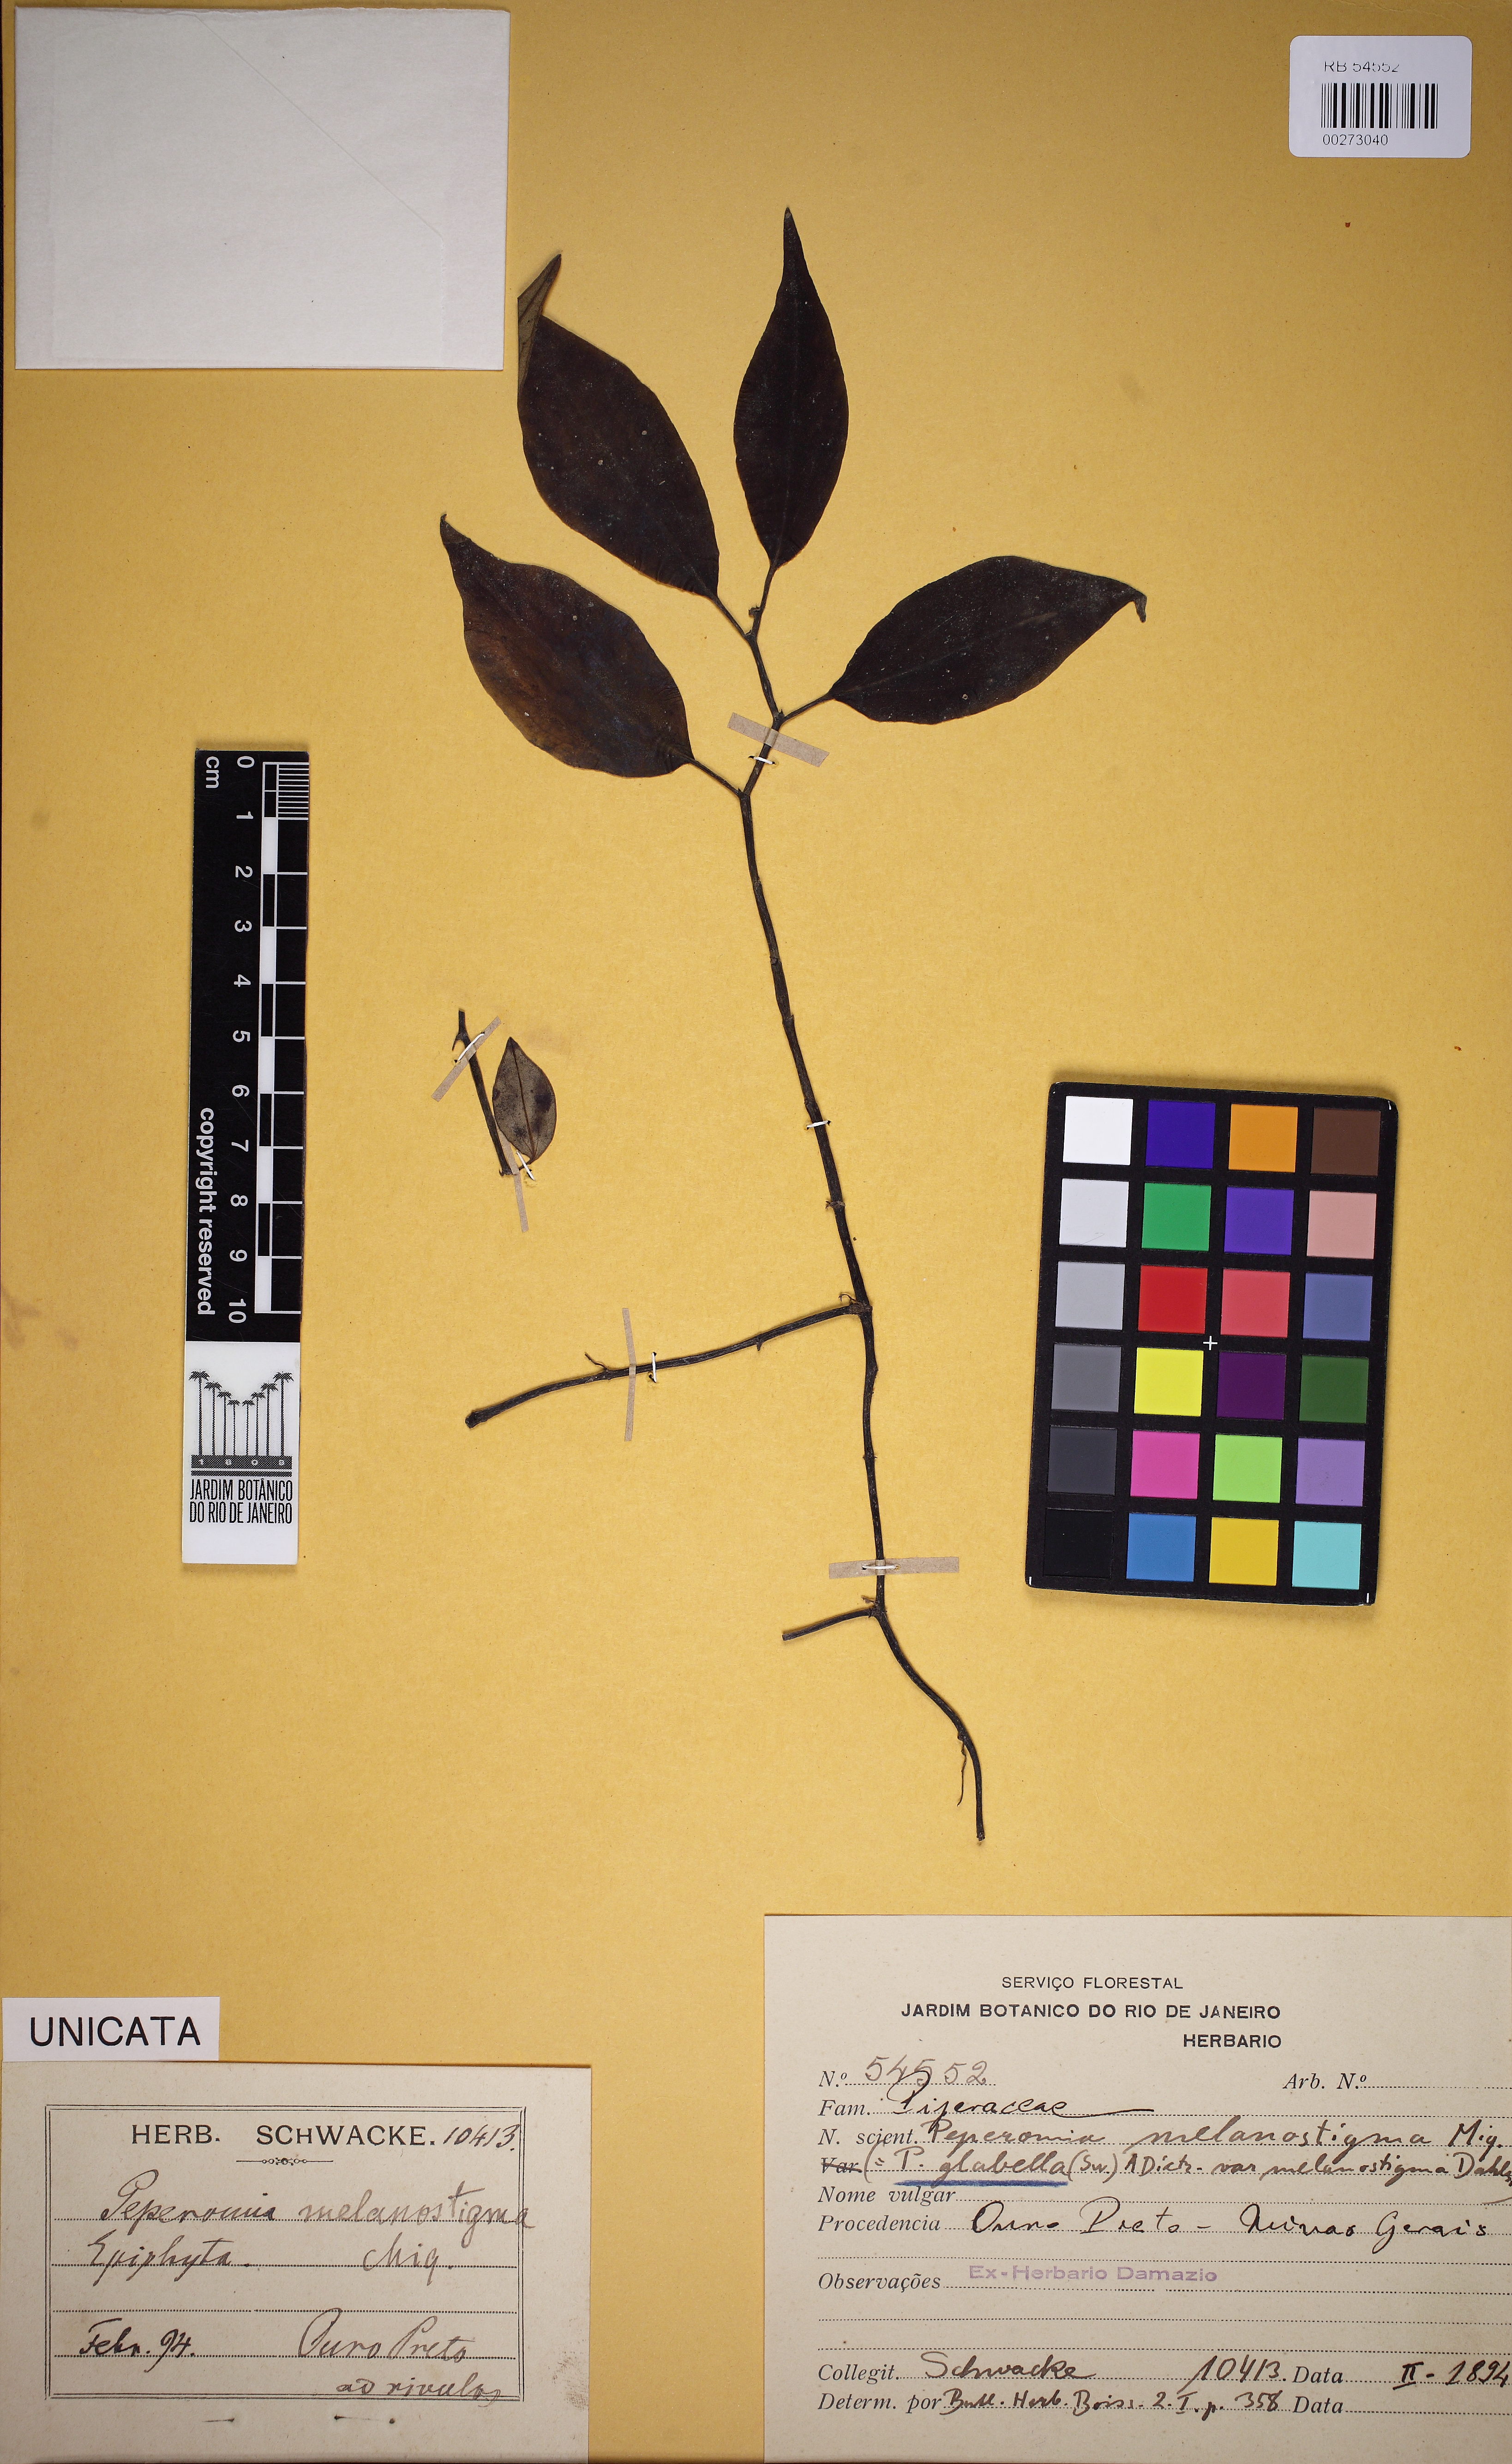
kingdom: Plantae
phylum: Tracheophyta
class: Magnoliopsida
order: Piperales
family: Piperaceae
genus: Peperomia
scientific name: Peperomia glabella
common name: Cypress peperomia
